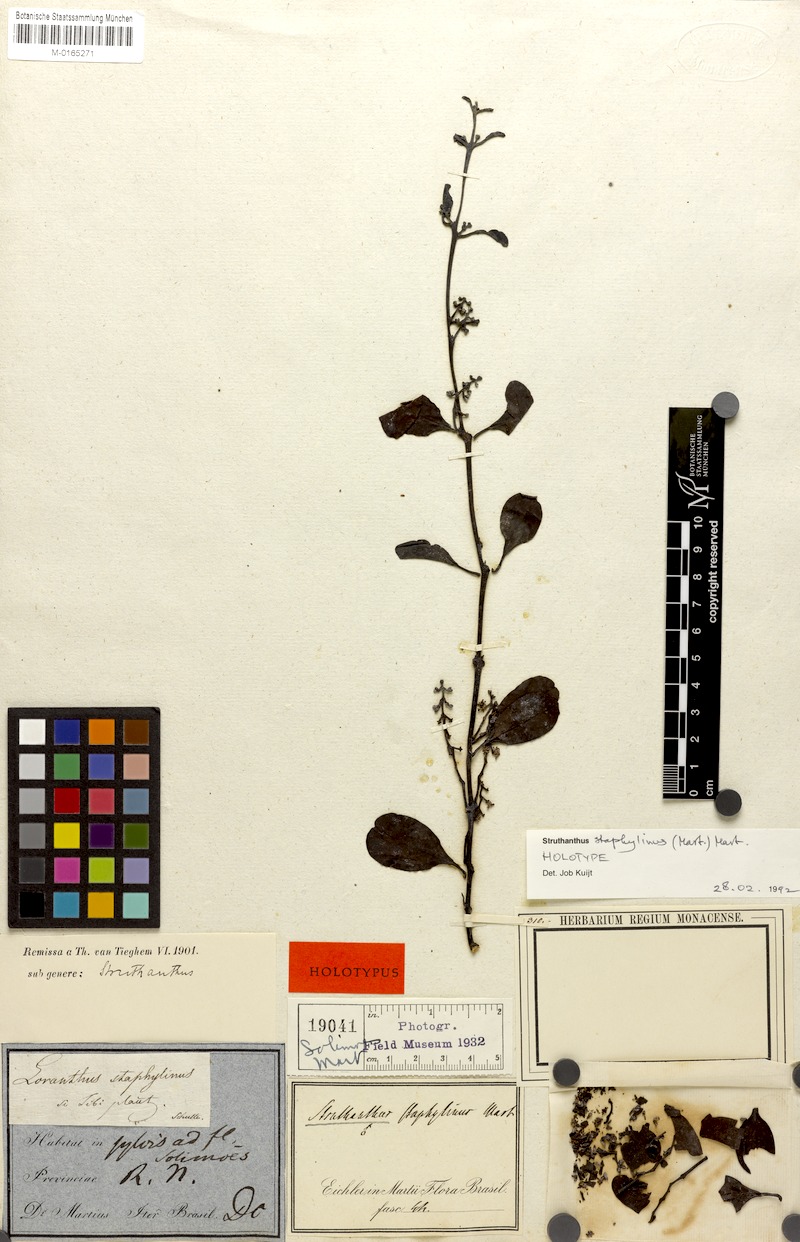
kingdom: Plantae
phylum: Tracheophyta
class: Magnoliopsida
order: Santalales
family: Loranthaceae
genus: Struthanthus
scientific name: Struthanthus staphylinus
